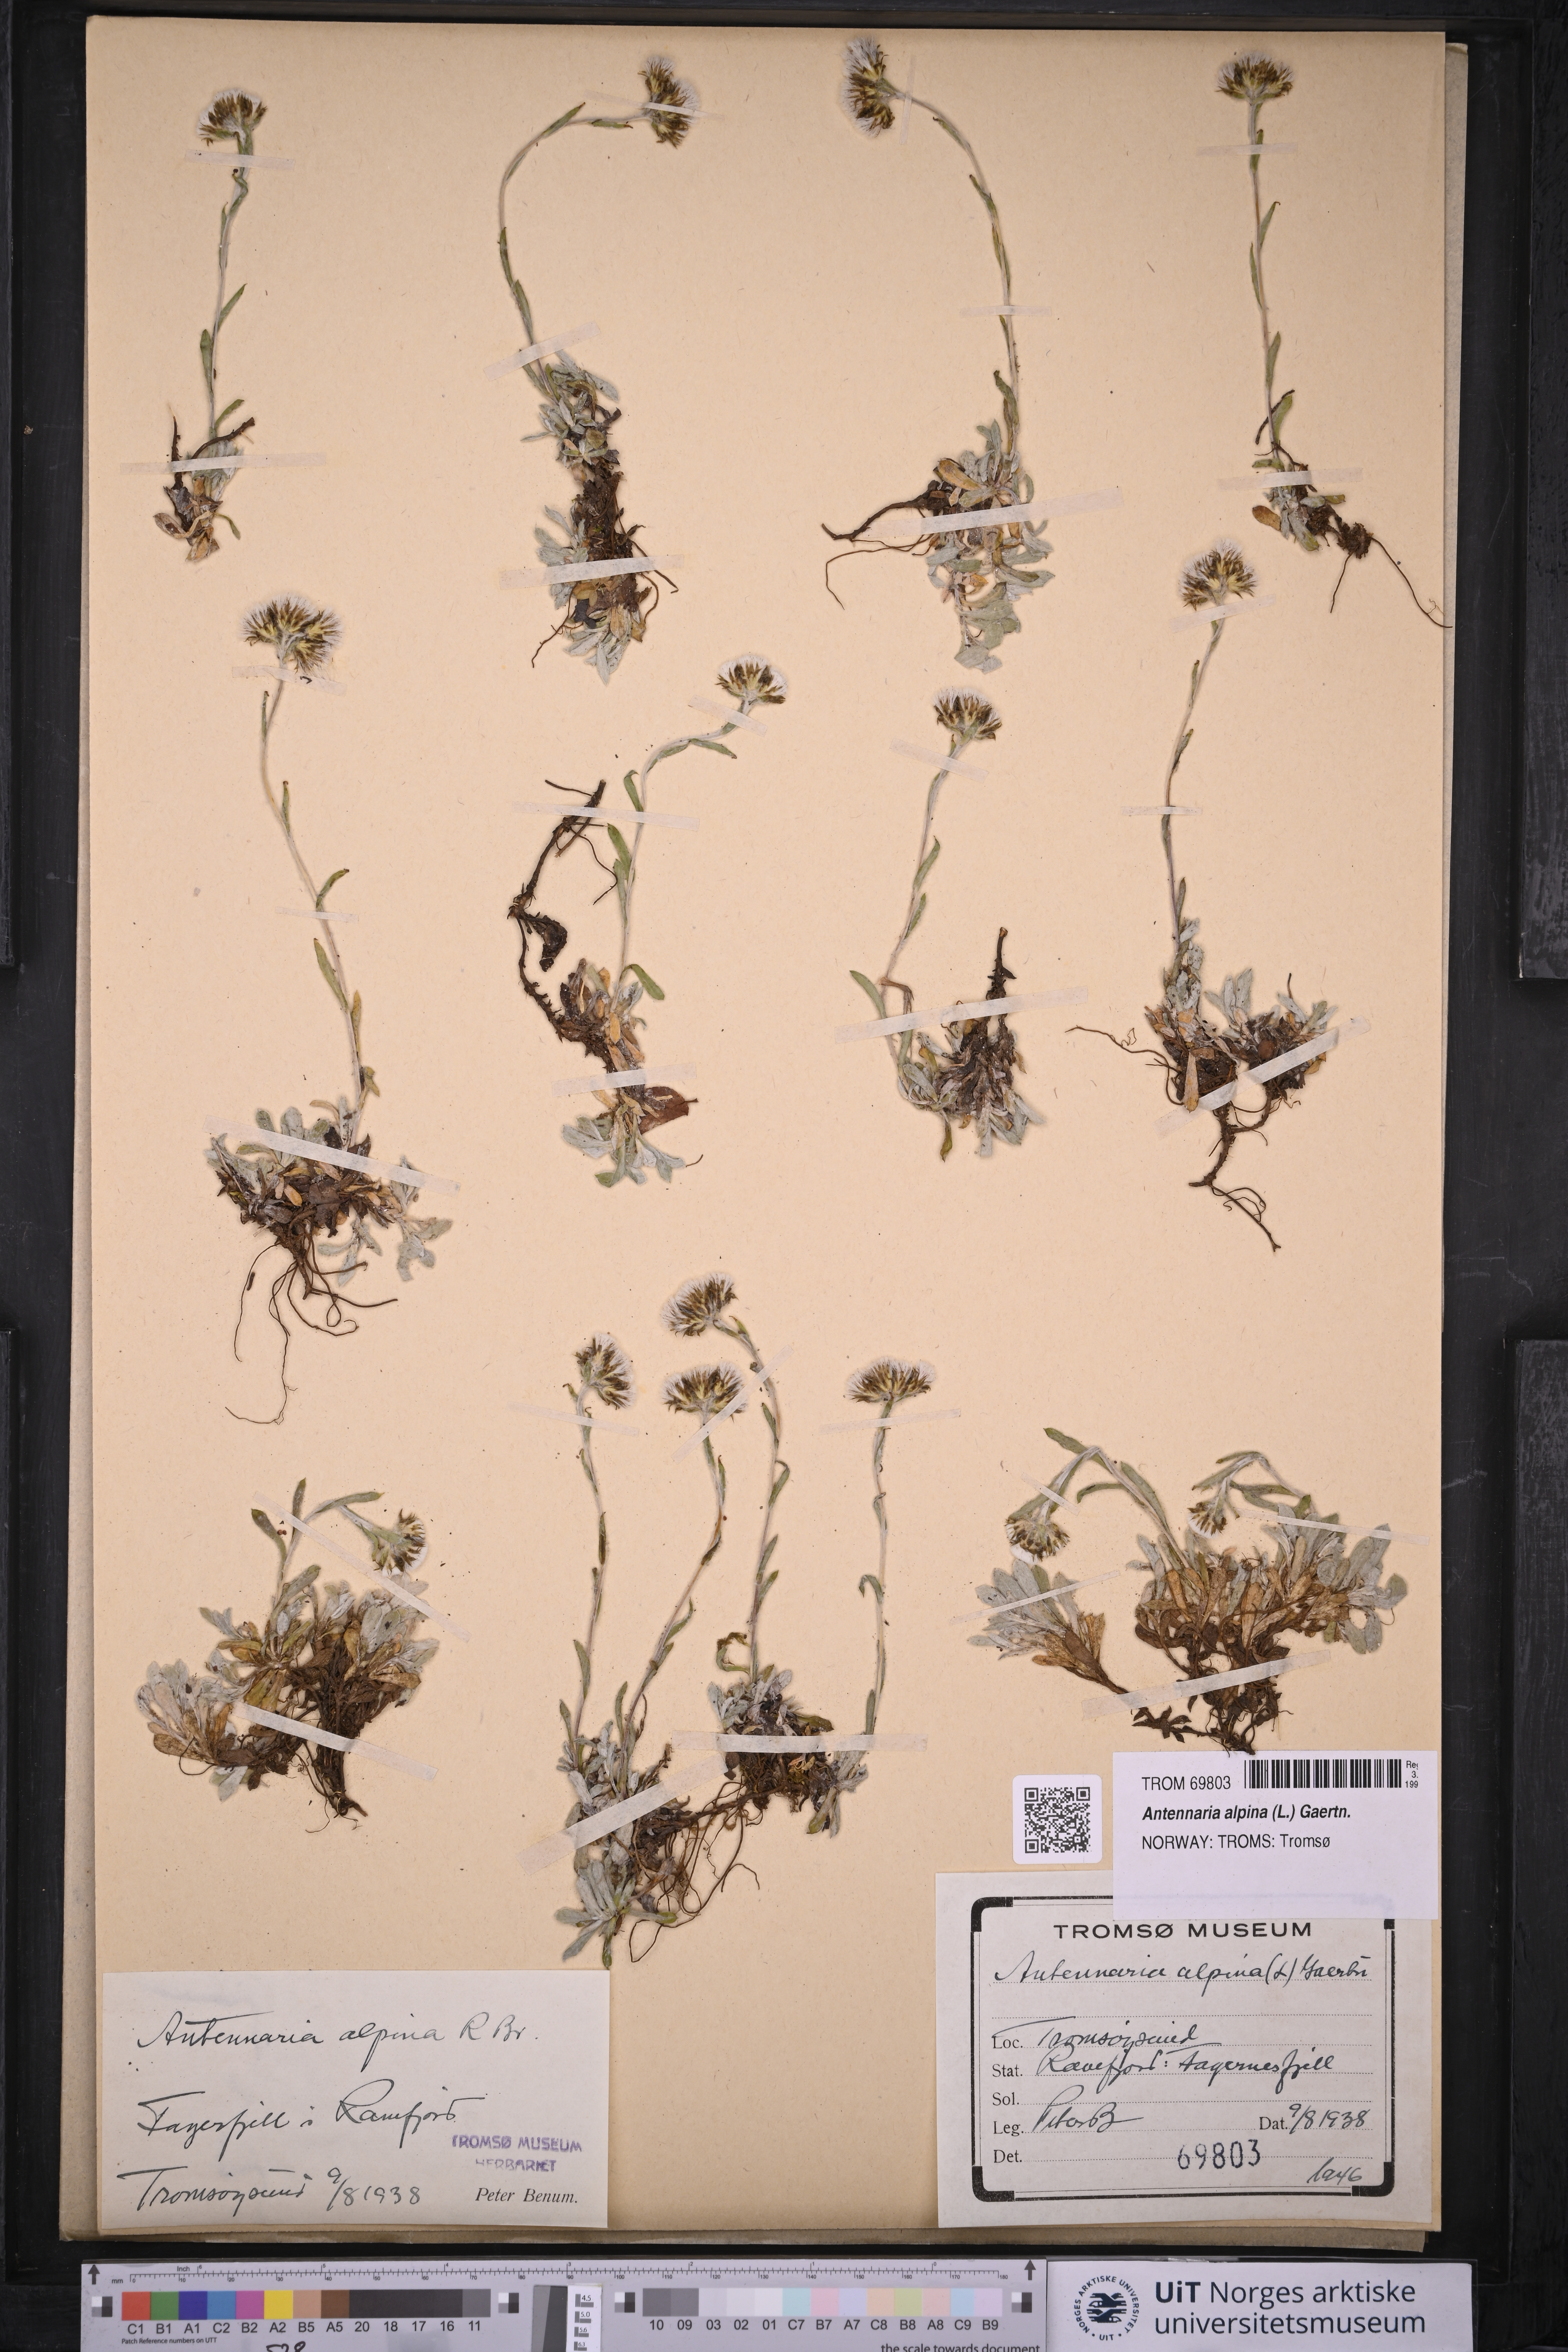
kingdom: Plantae
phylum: Tracheophyta
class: Magnoliopsida
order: Asterales
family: Asteraceae
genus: Antennaria
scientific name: Antennaria alpina
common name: Alpine pussytoes
